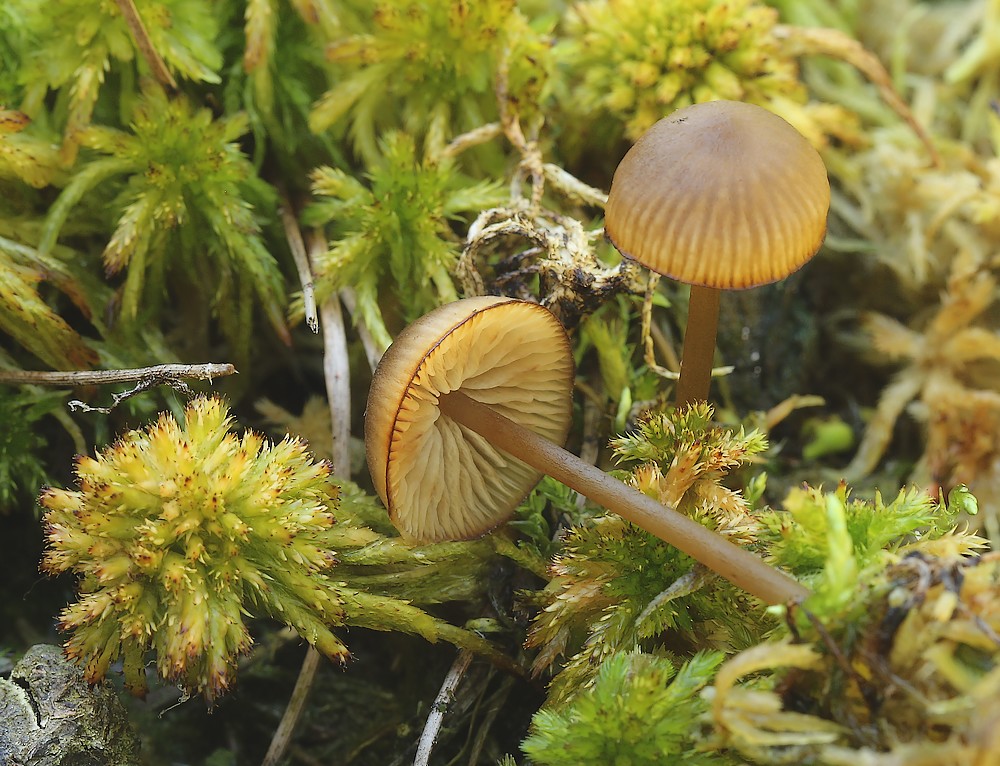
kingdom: Fungi
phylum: Basidiomycota
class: Agaricomycetes
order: Agaricales
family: Lyophyllaceae
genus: Sphagnurus
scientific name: Sphagnurus paluster
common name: tørvemos-gråblad
